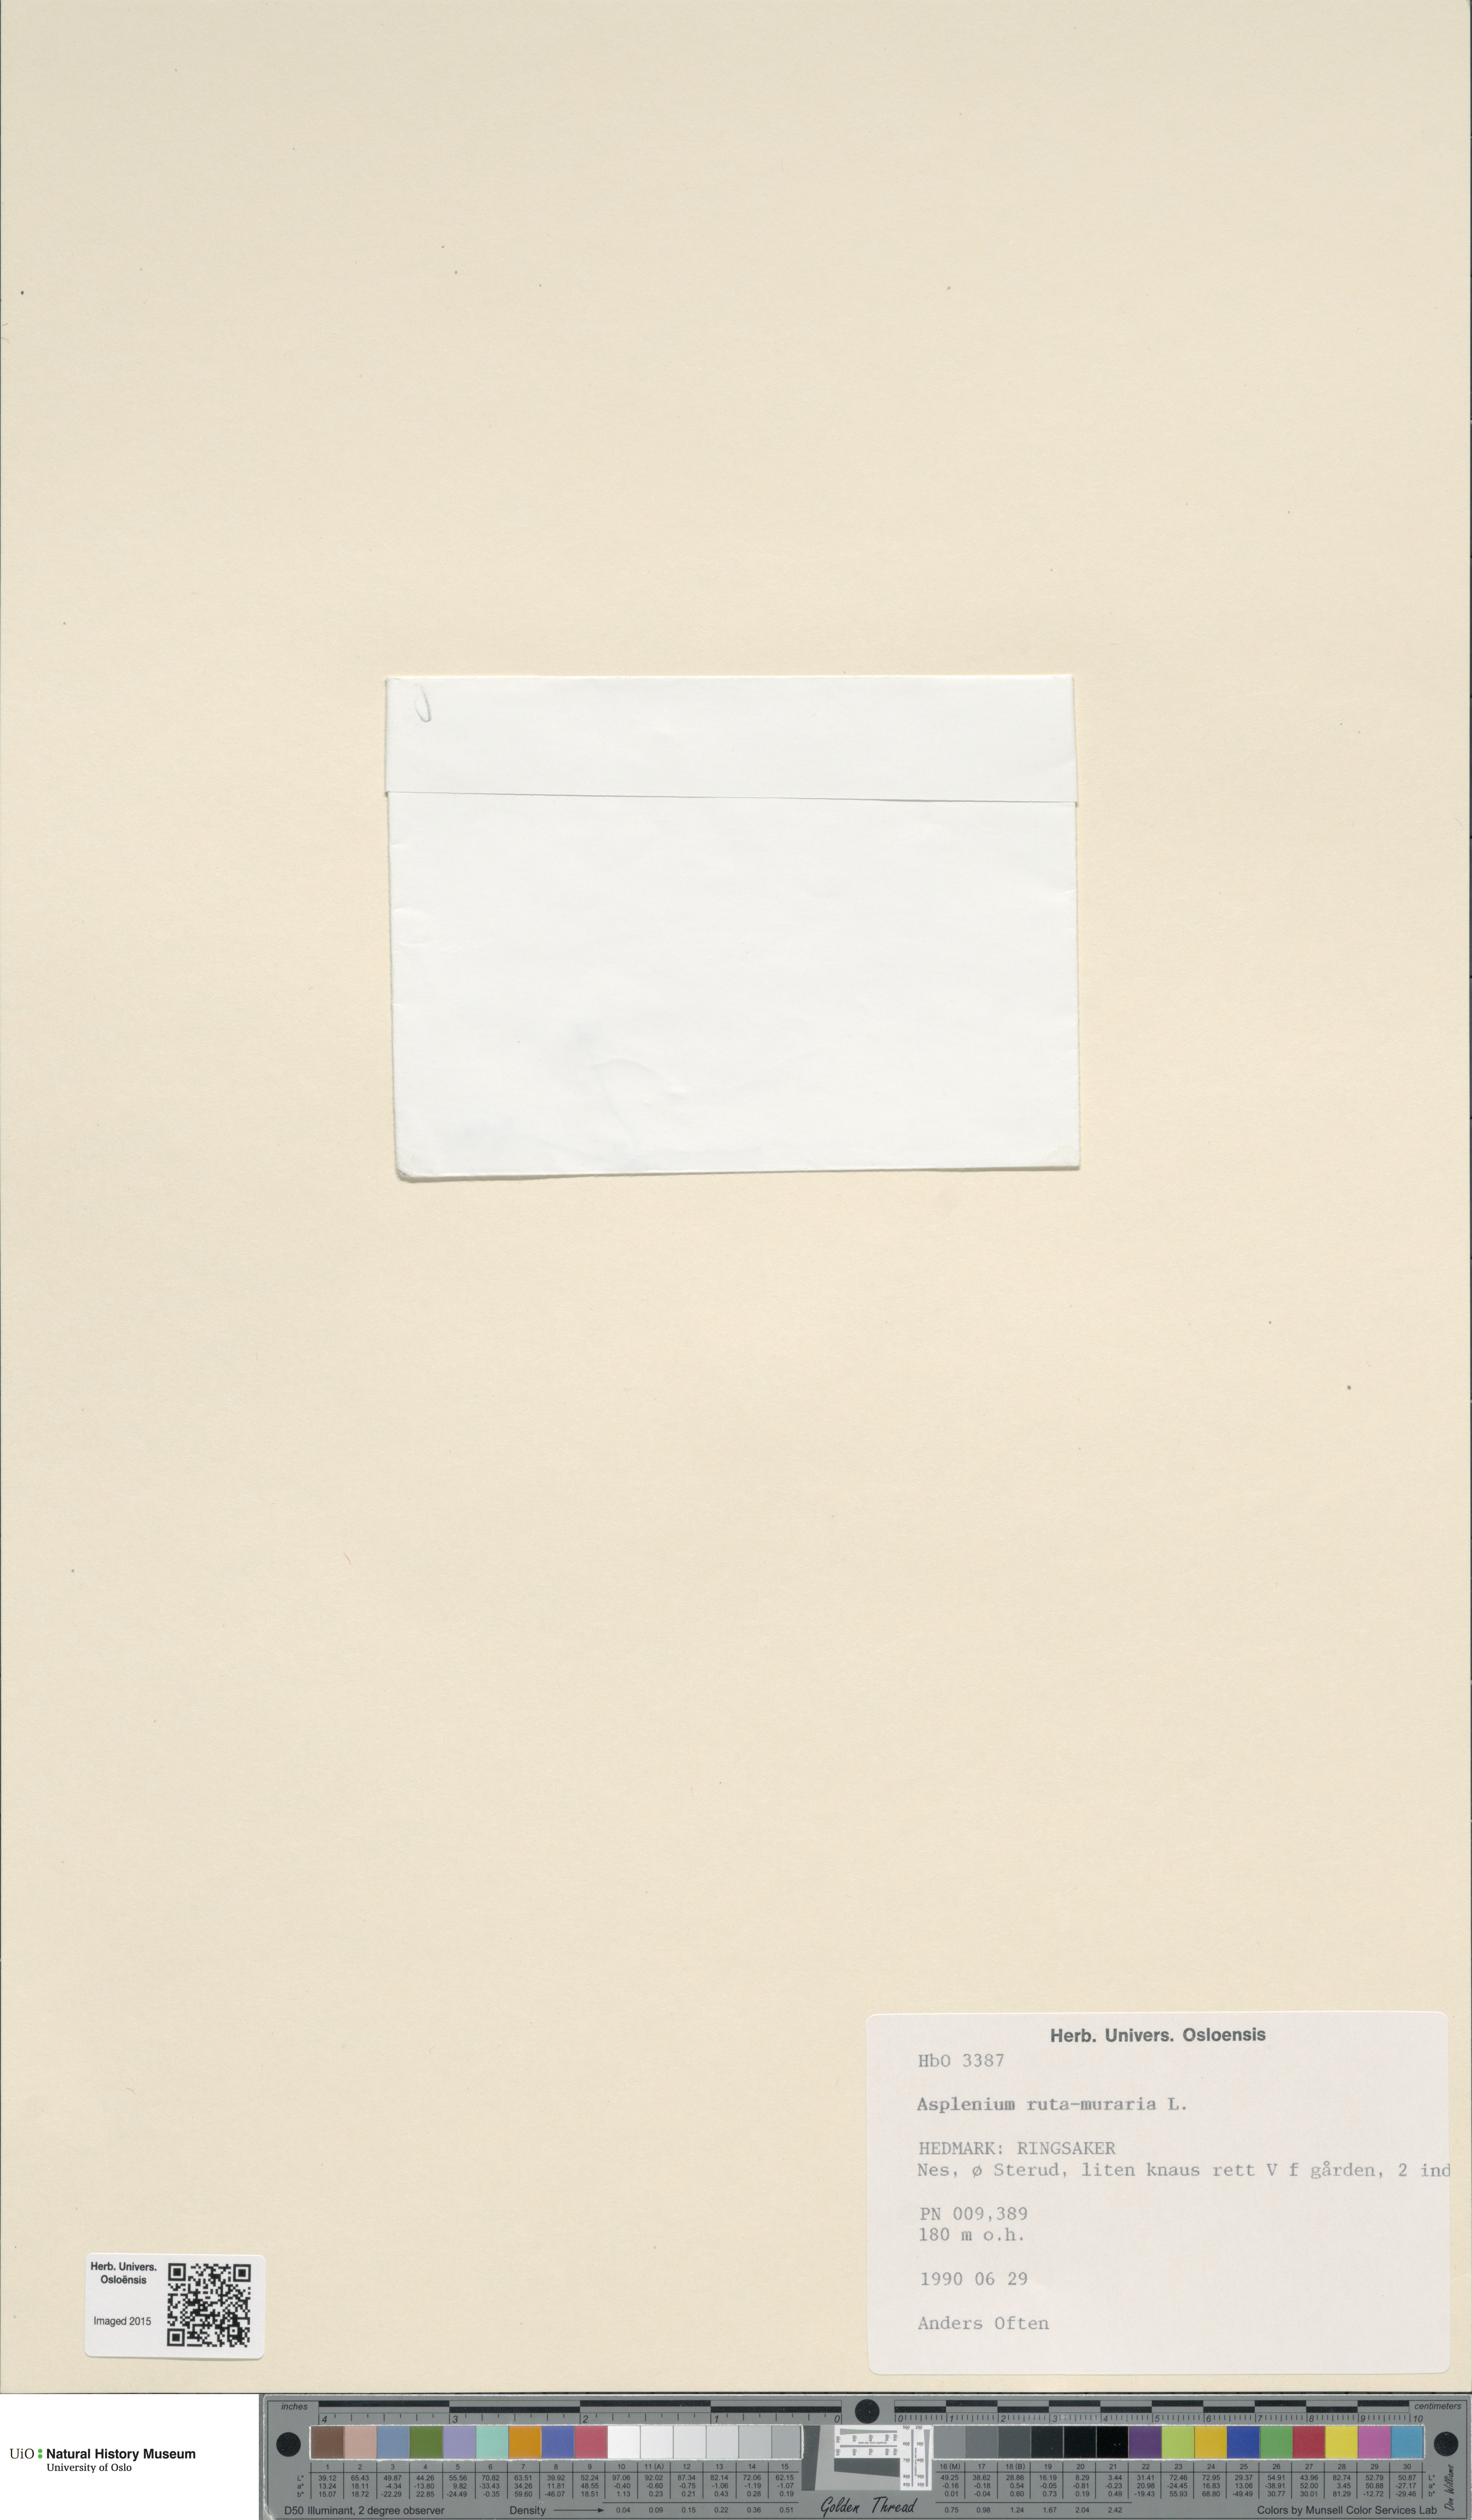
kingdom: Plantae
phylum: Tracheophyta
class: Polypodiopsida
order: Polypodiales
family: Aspleniaceae
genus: Asplenium
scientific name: Asplenium ruta-muraria
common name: Wall-rue
